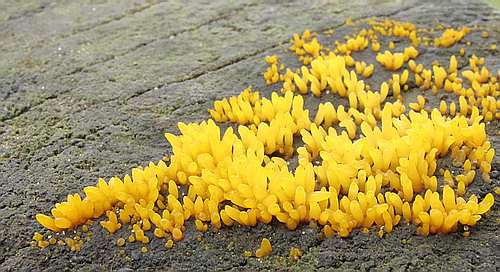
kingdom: Fungi
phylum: Basidiomycota
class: Dacrymycetes
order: Dacrymycetales
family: Dacrymycetaceae
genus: Calocera
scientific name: Calocera furcata
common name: fyrre-guldgaffel
